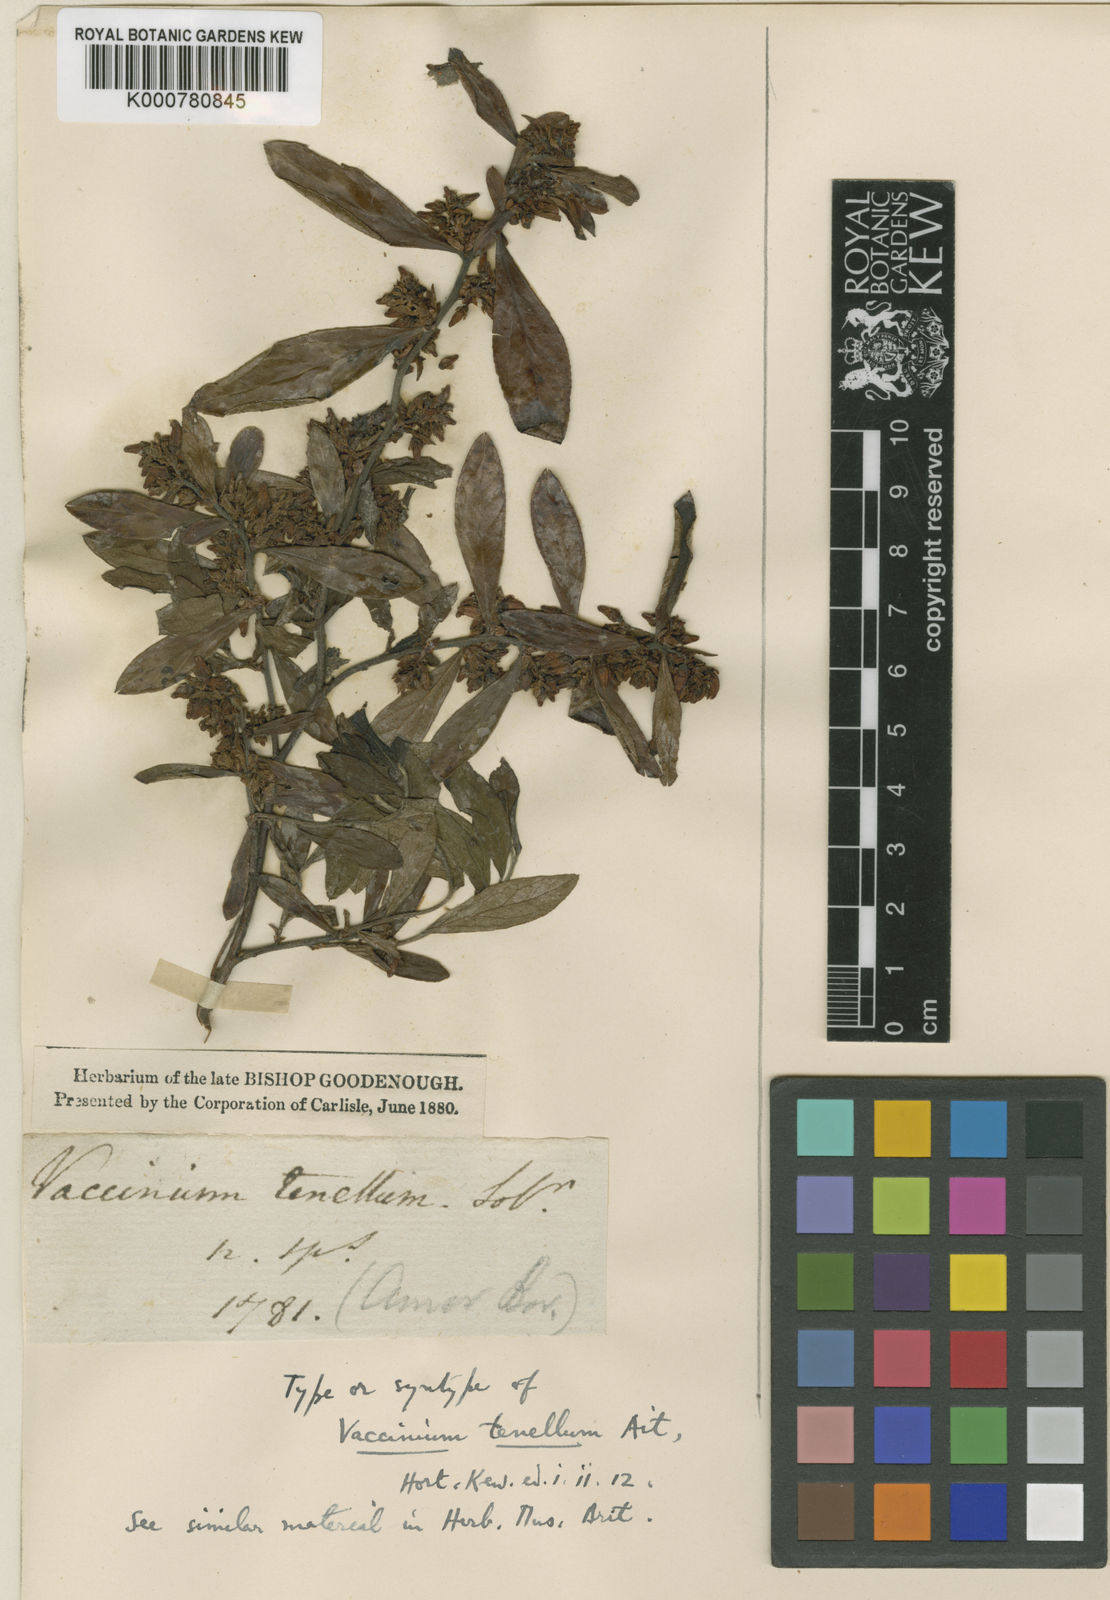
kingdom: Plantae
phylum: Tracheophyta
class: Magnoliopsida
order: Ericales
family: Ericaceae
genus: Vaccinium
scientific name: Vaccinium tenellum
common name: Southern blueberry
